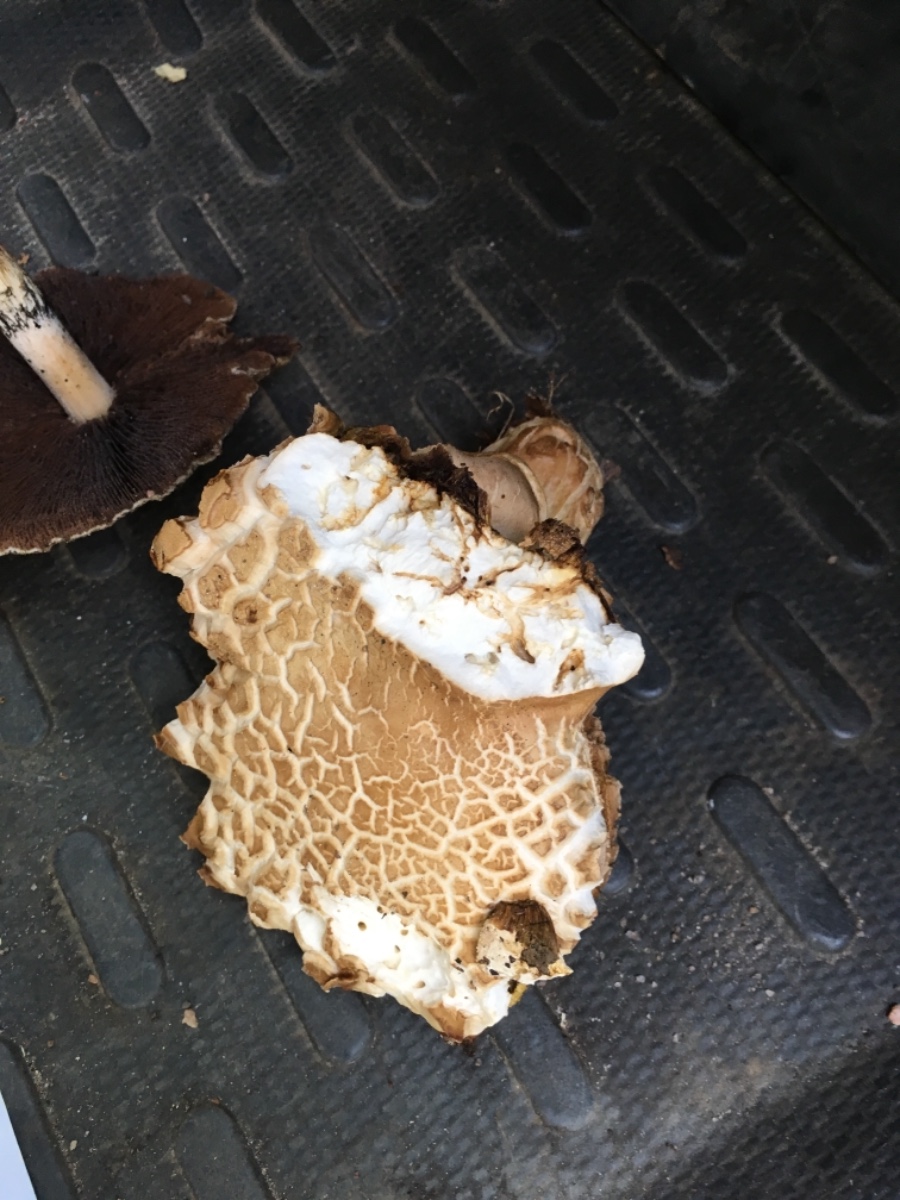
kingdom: Fungi
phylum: Basidiomycota
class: Agaricomycetes
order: Boletales
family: Boletaceae
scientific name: Boletaceae
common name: rørhatfamilien
